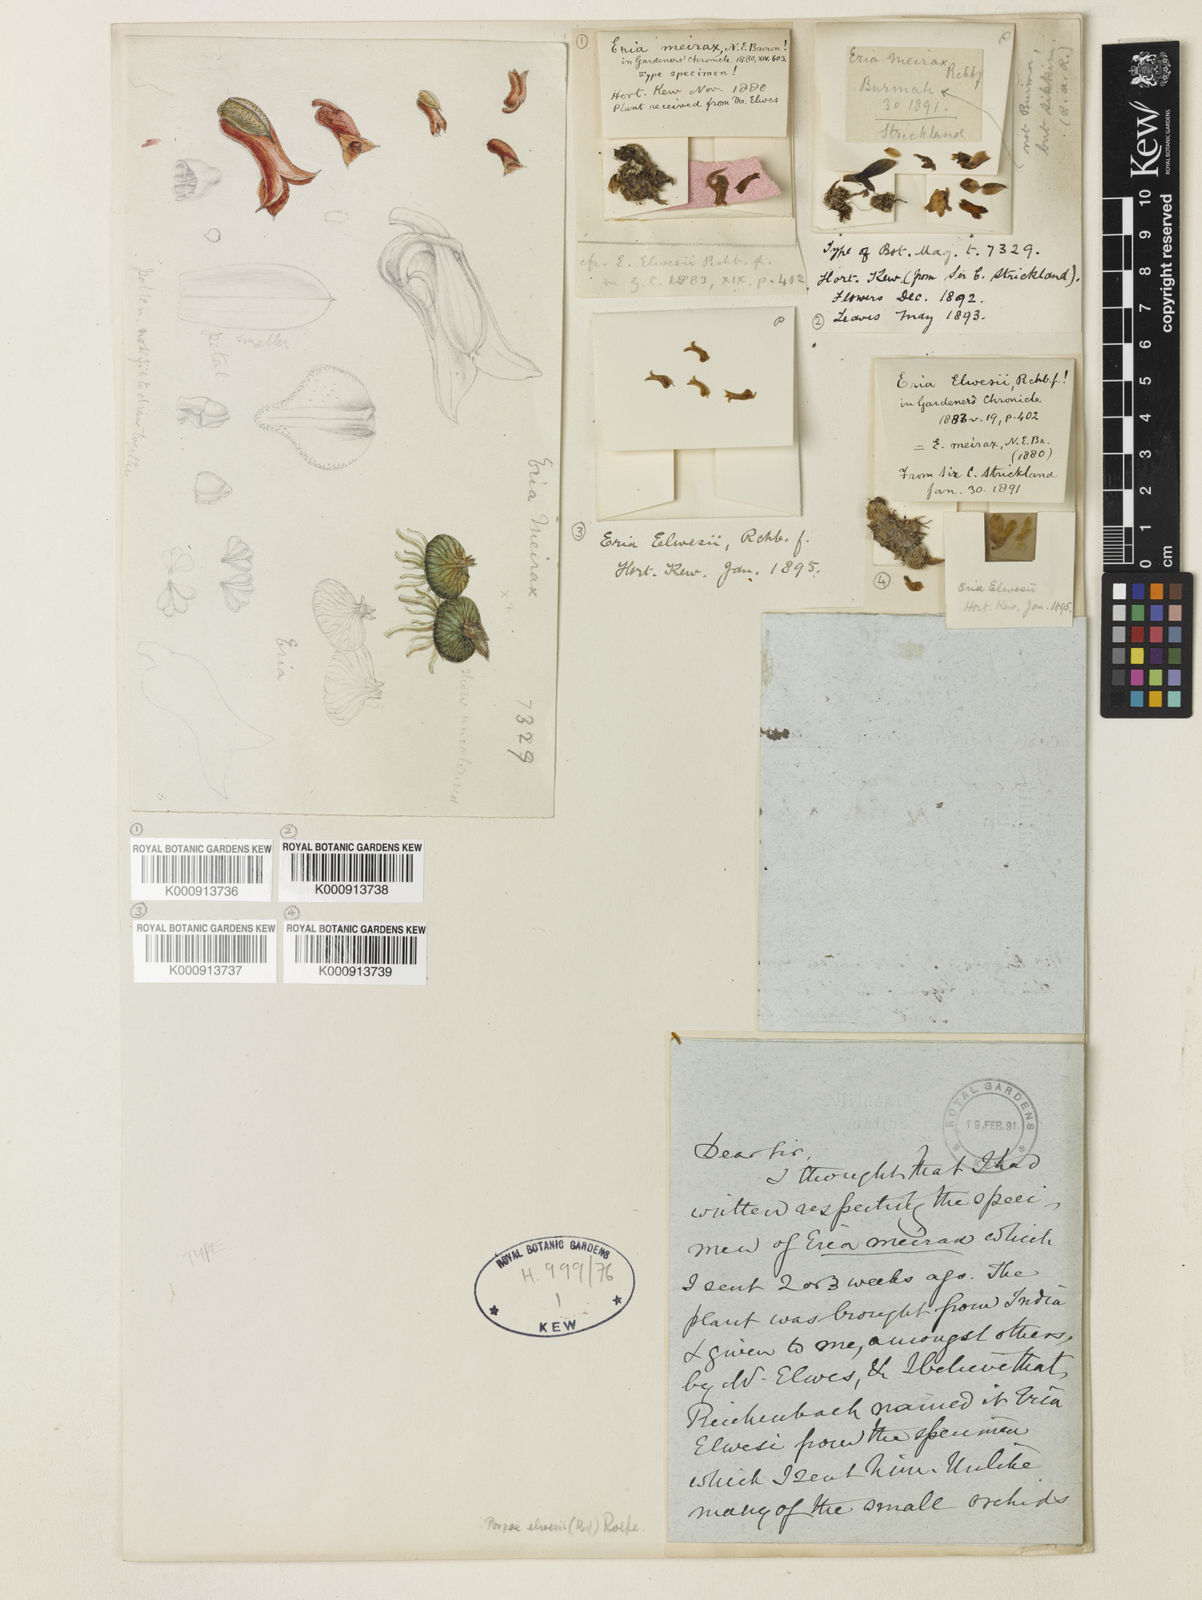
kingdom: Plantae
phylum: Tracheophyta
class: Liliopsida
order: Asparagales
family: Orchidaceae
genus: Porpax
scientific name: Porpax elwesii
